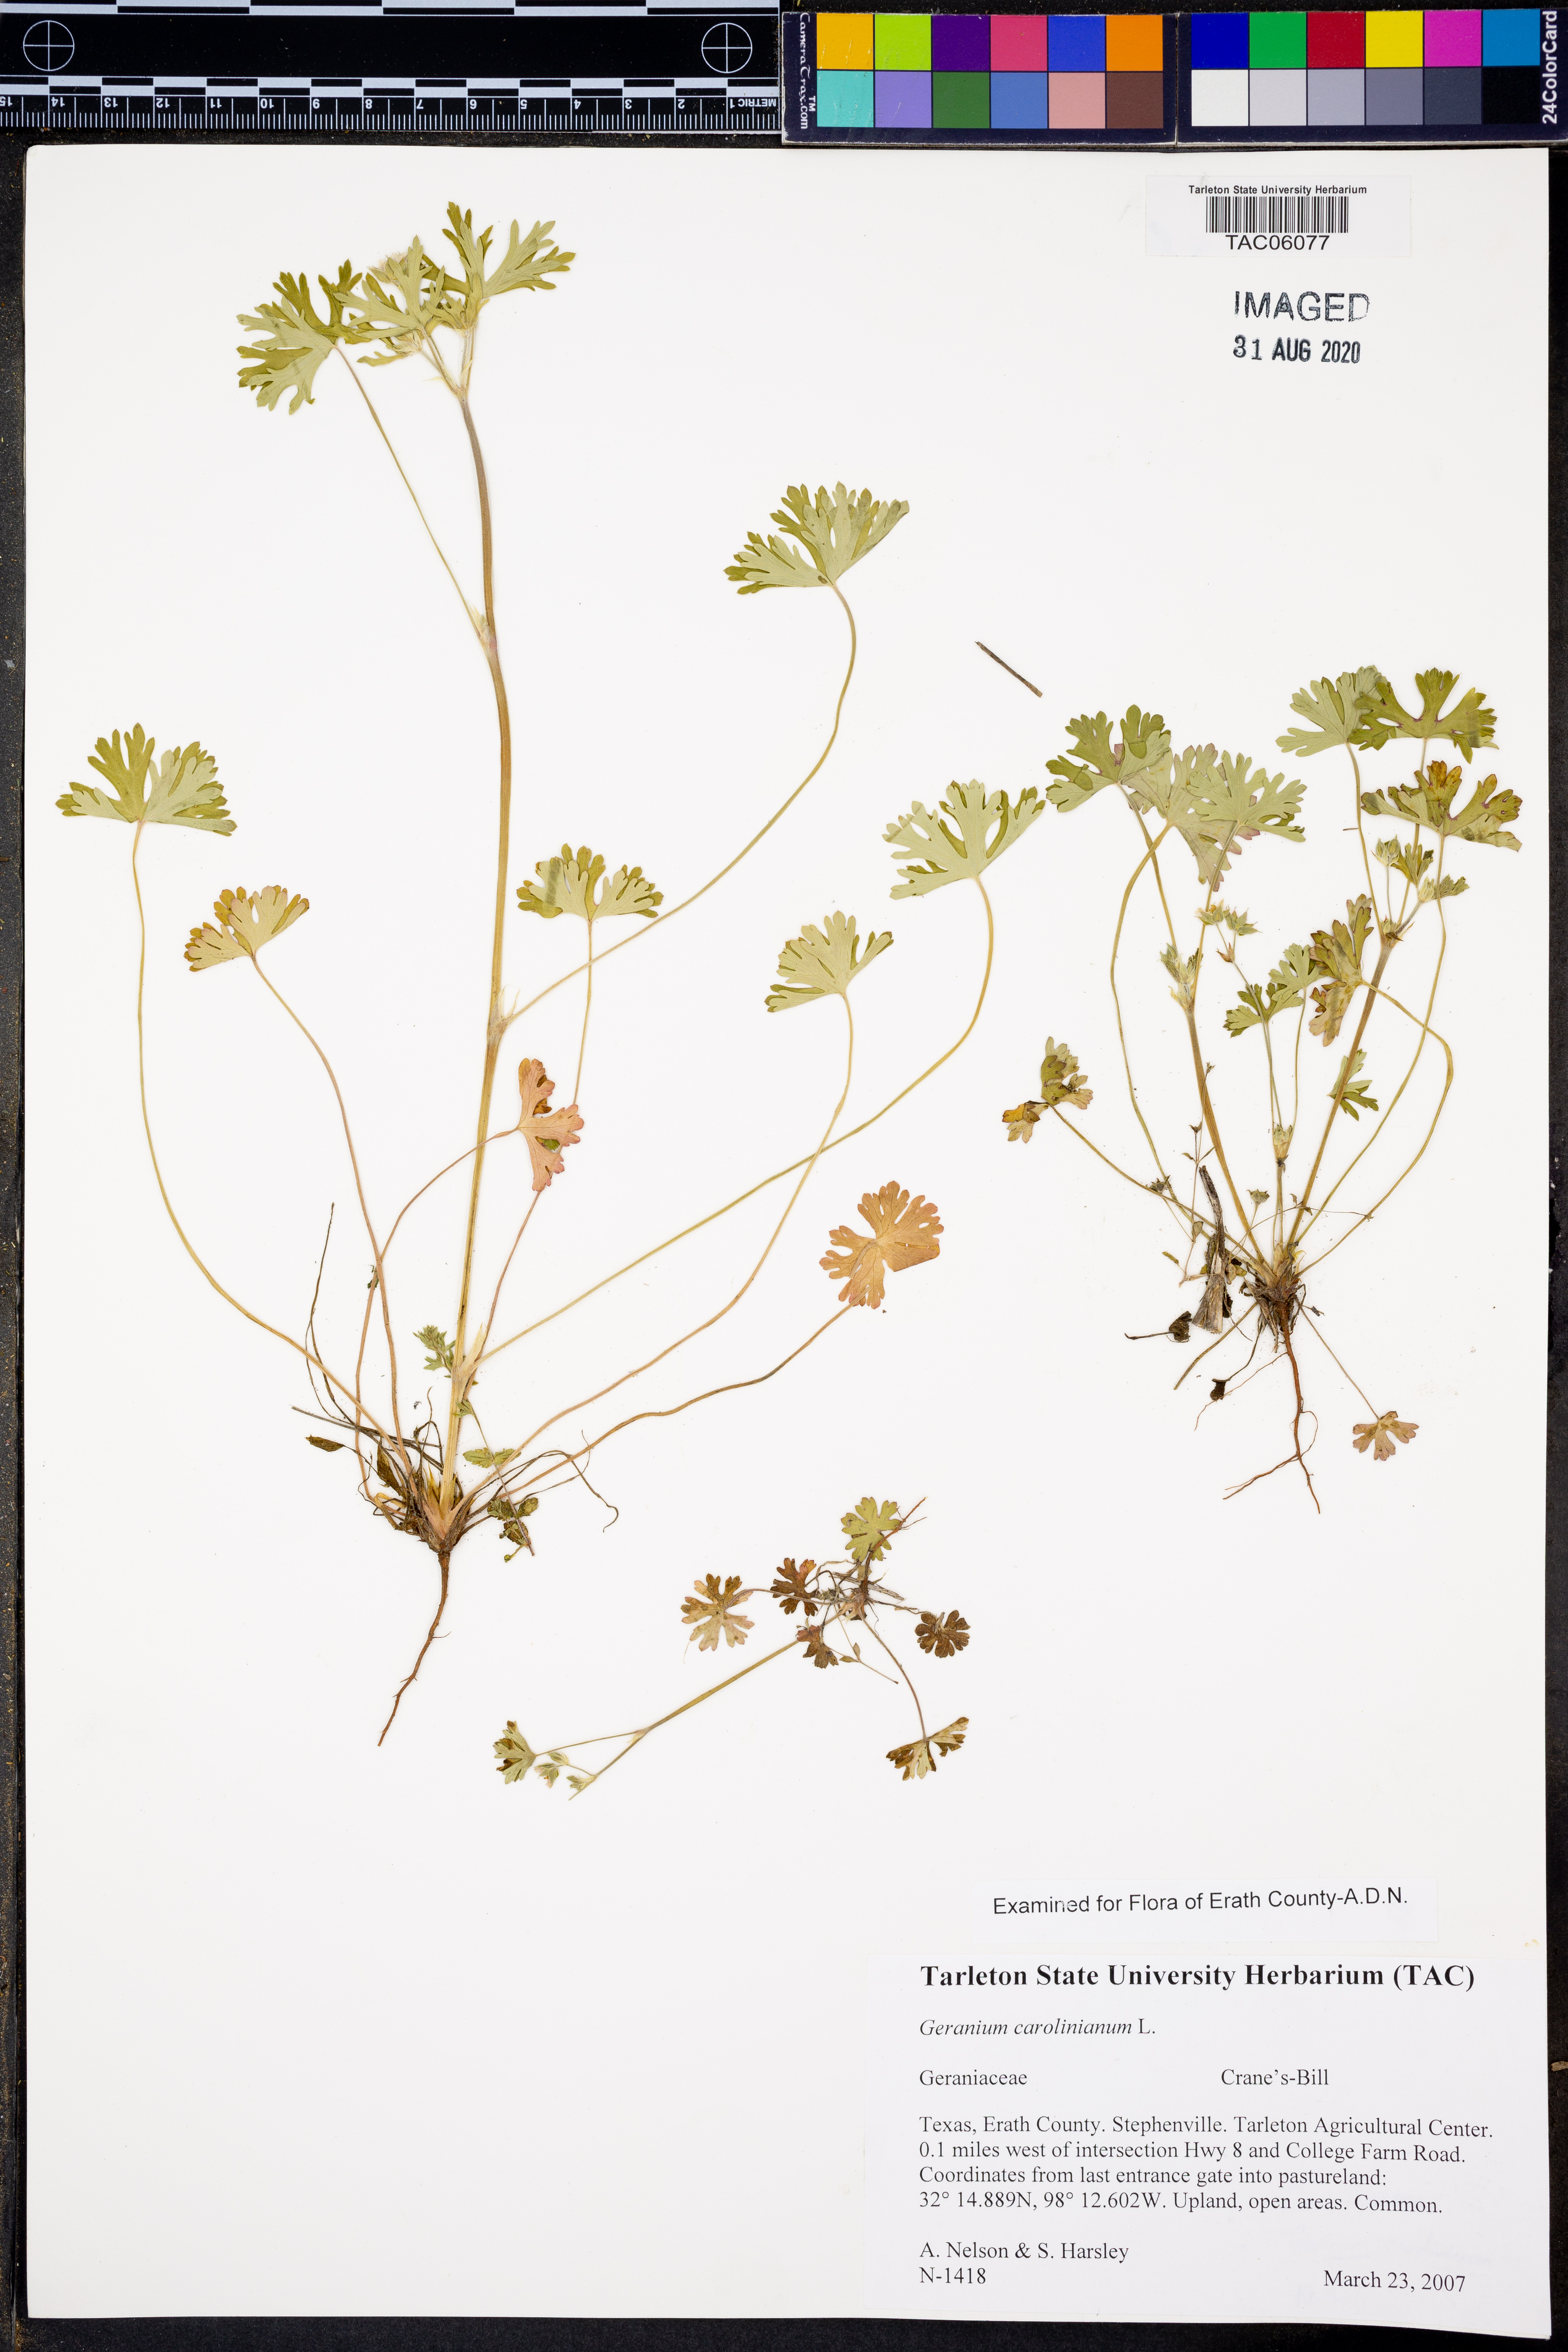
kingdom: Plantae
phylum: Tracheophyta
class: Magnoliopsida
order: Geraniales
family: Geraniaceae
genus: Geranium
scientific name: Geranium carolinianum
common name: Carolina crane's-bill
